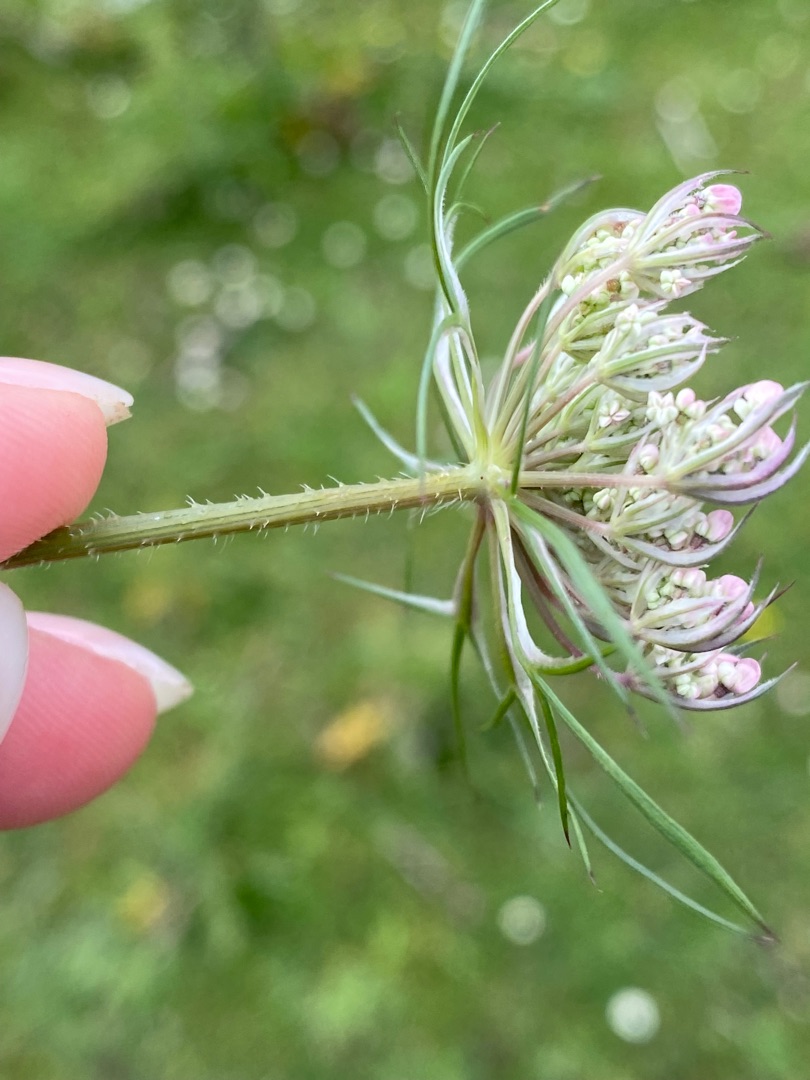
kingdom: Plantae
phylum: Tracheophyta
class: Magnoliopsida
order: Apiales
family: Apiaceae
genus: Daucus
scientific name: Daucus carota
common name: Gulerod
